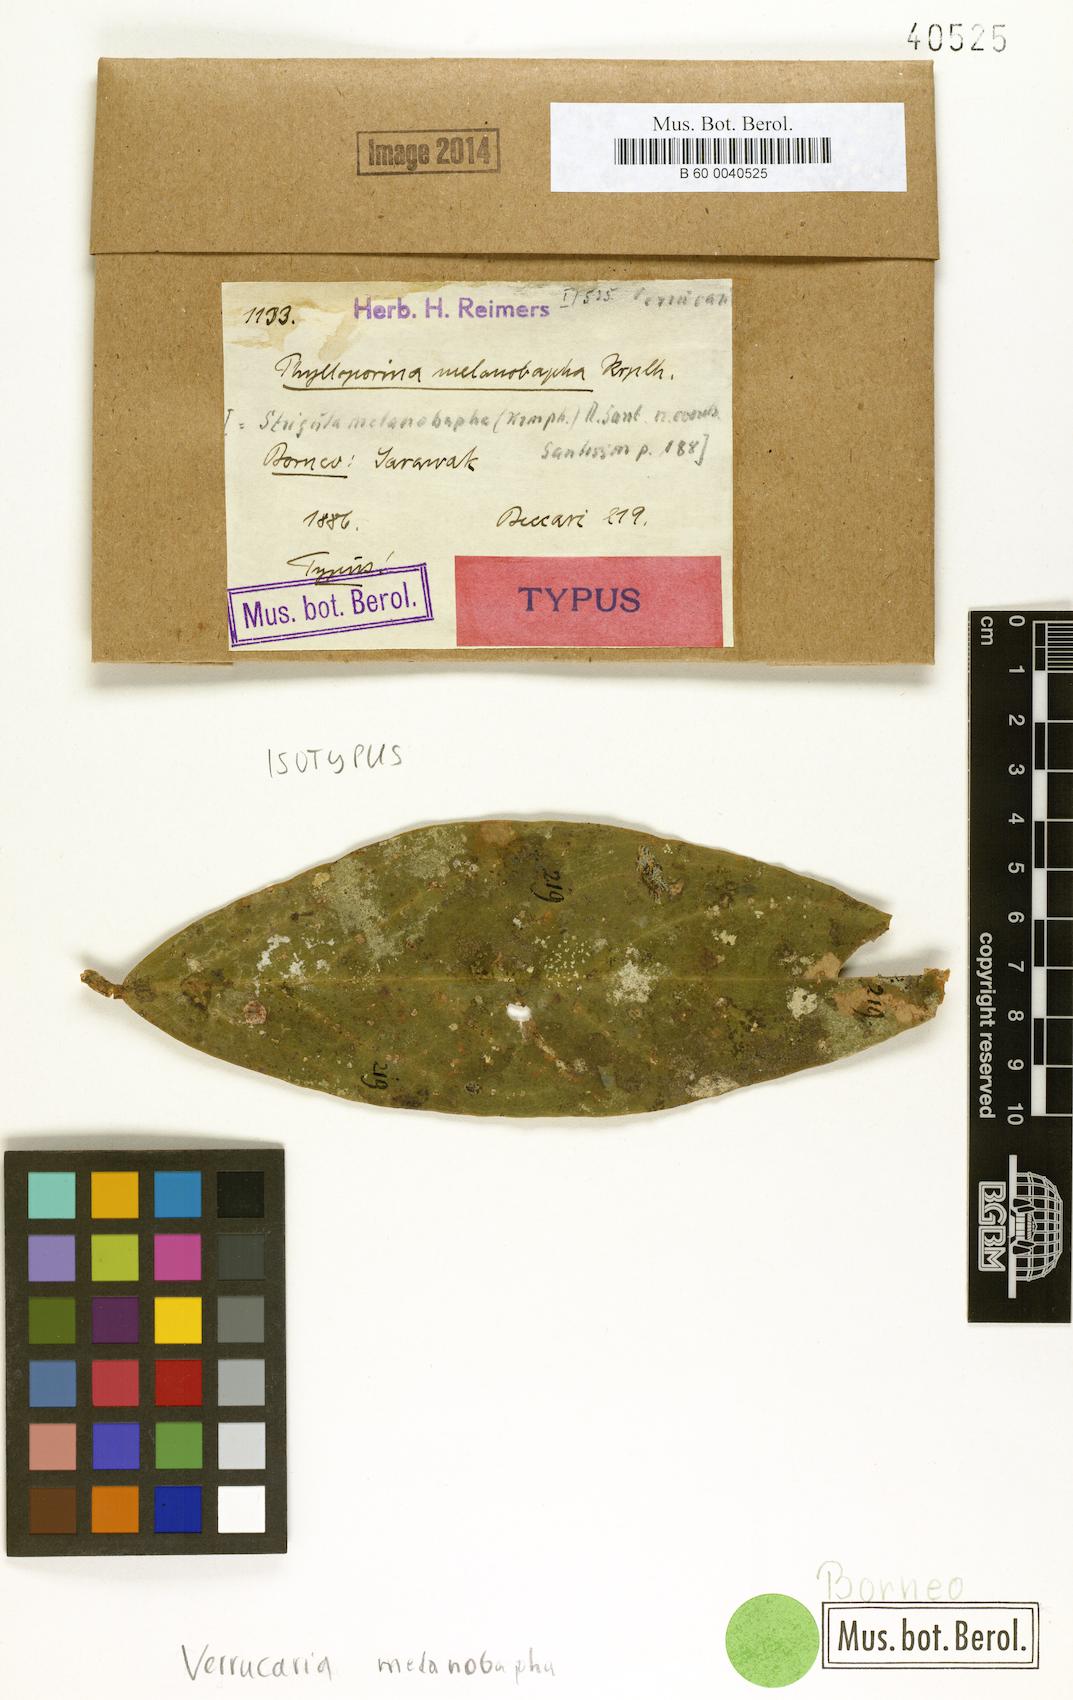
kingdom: Fungi
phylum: Ascomycota
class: Dothideomycetes
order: Strigulales
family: Strigulaceae
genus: Racoplaca
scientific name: Racoplaca melanobapha
